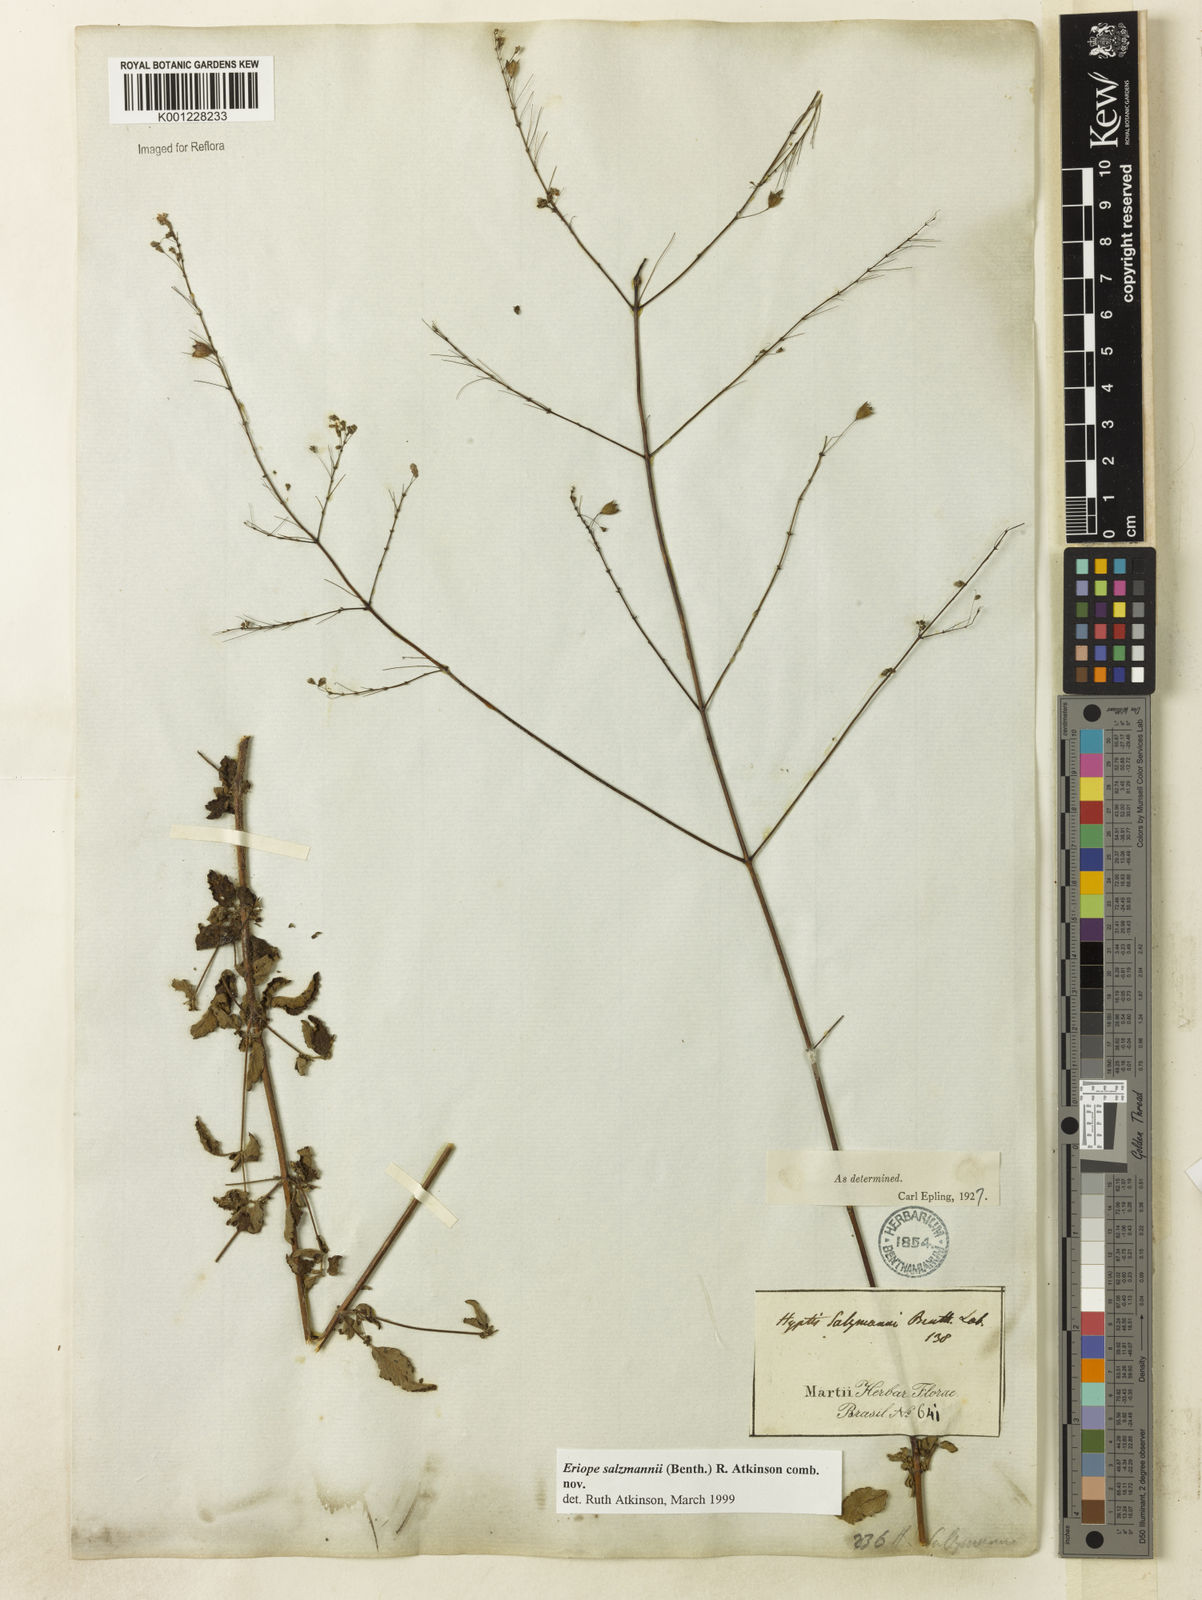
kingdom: Plantae
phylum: Tracheophyta
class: Magnoliopsida
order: Lamiales
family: Lamiaceae
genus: Hypenia
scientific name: Hypenia salzmannii
